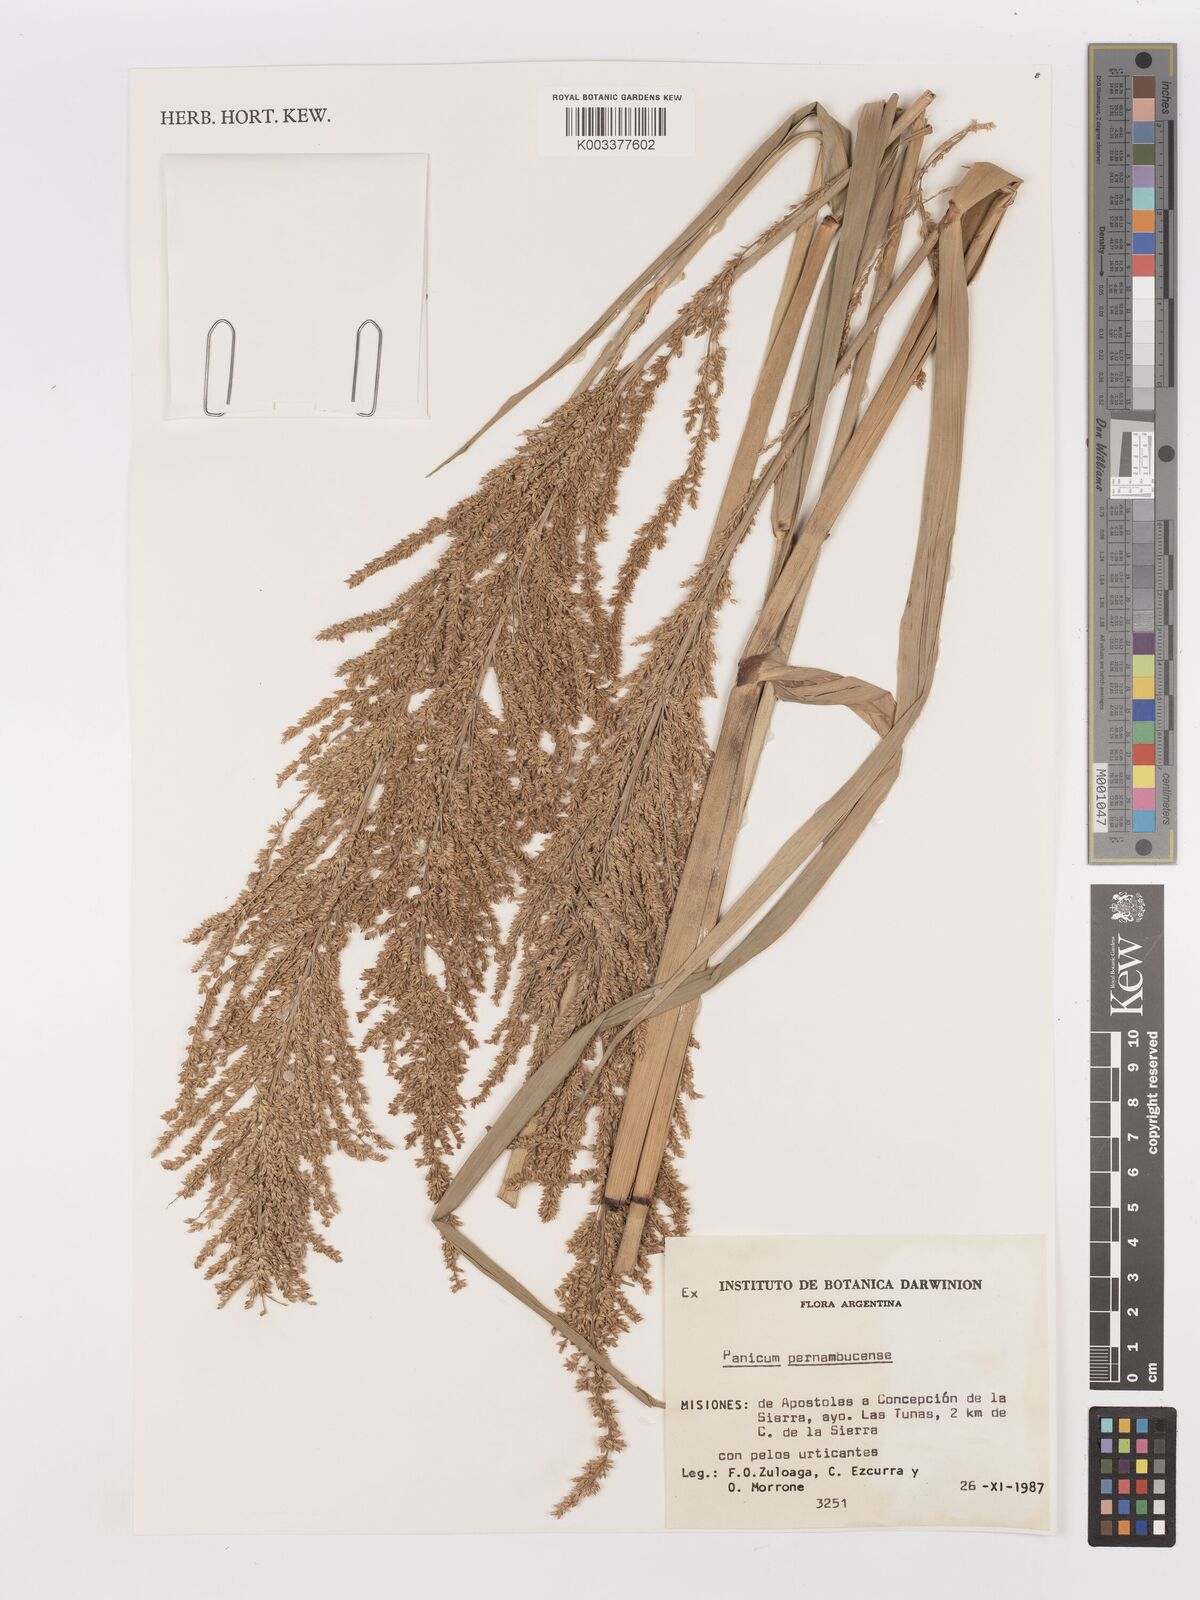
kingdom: Plantae
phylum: Tracheophyta
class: Liliopsida
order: Poales
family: Poaceae
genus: Hymenachne
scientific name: Hymenachne pernambucensis
